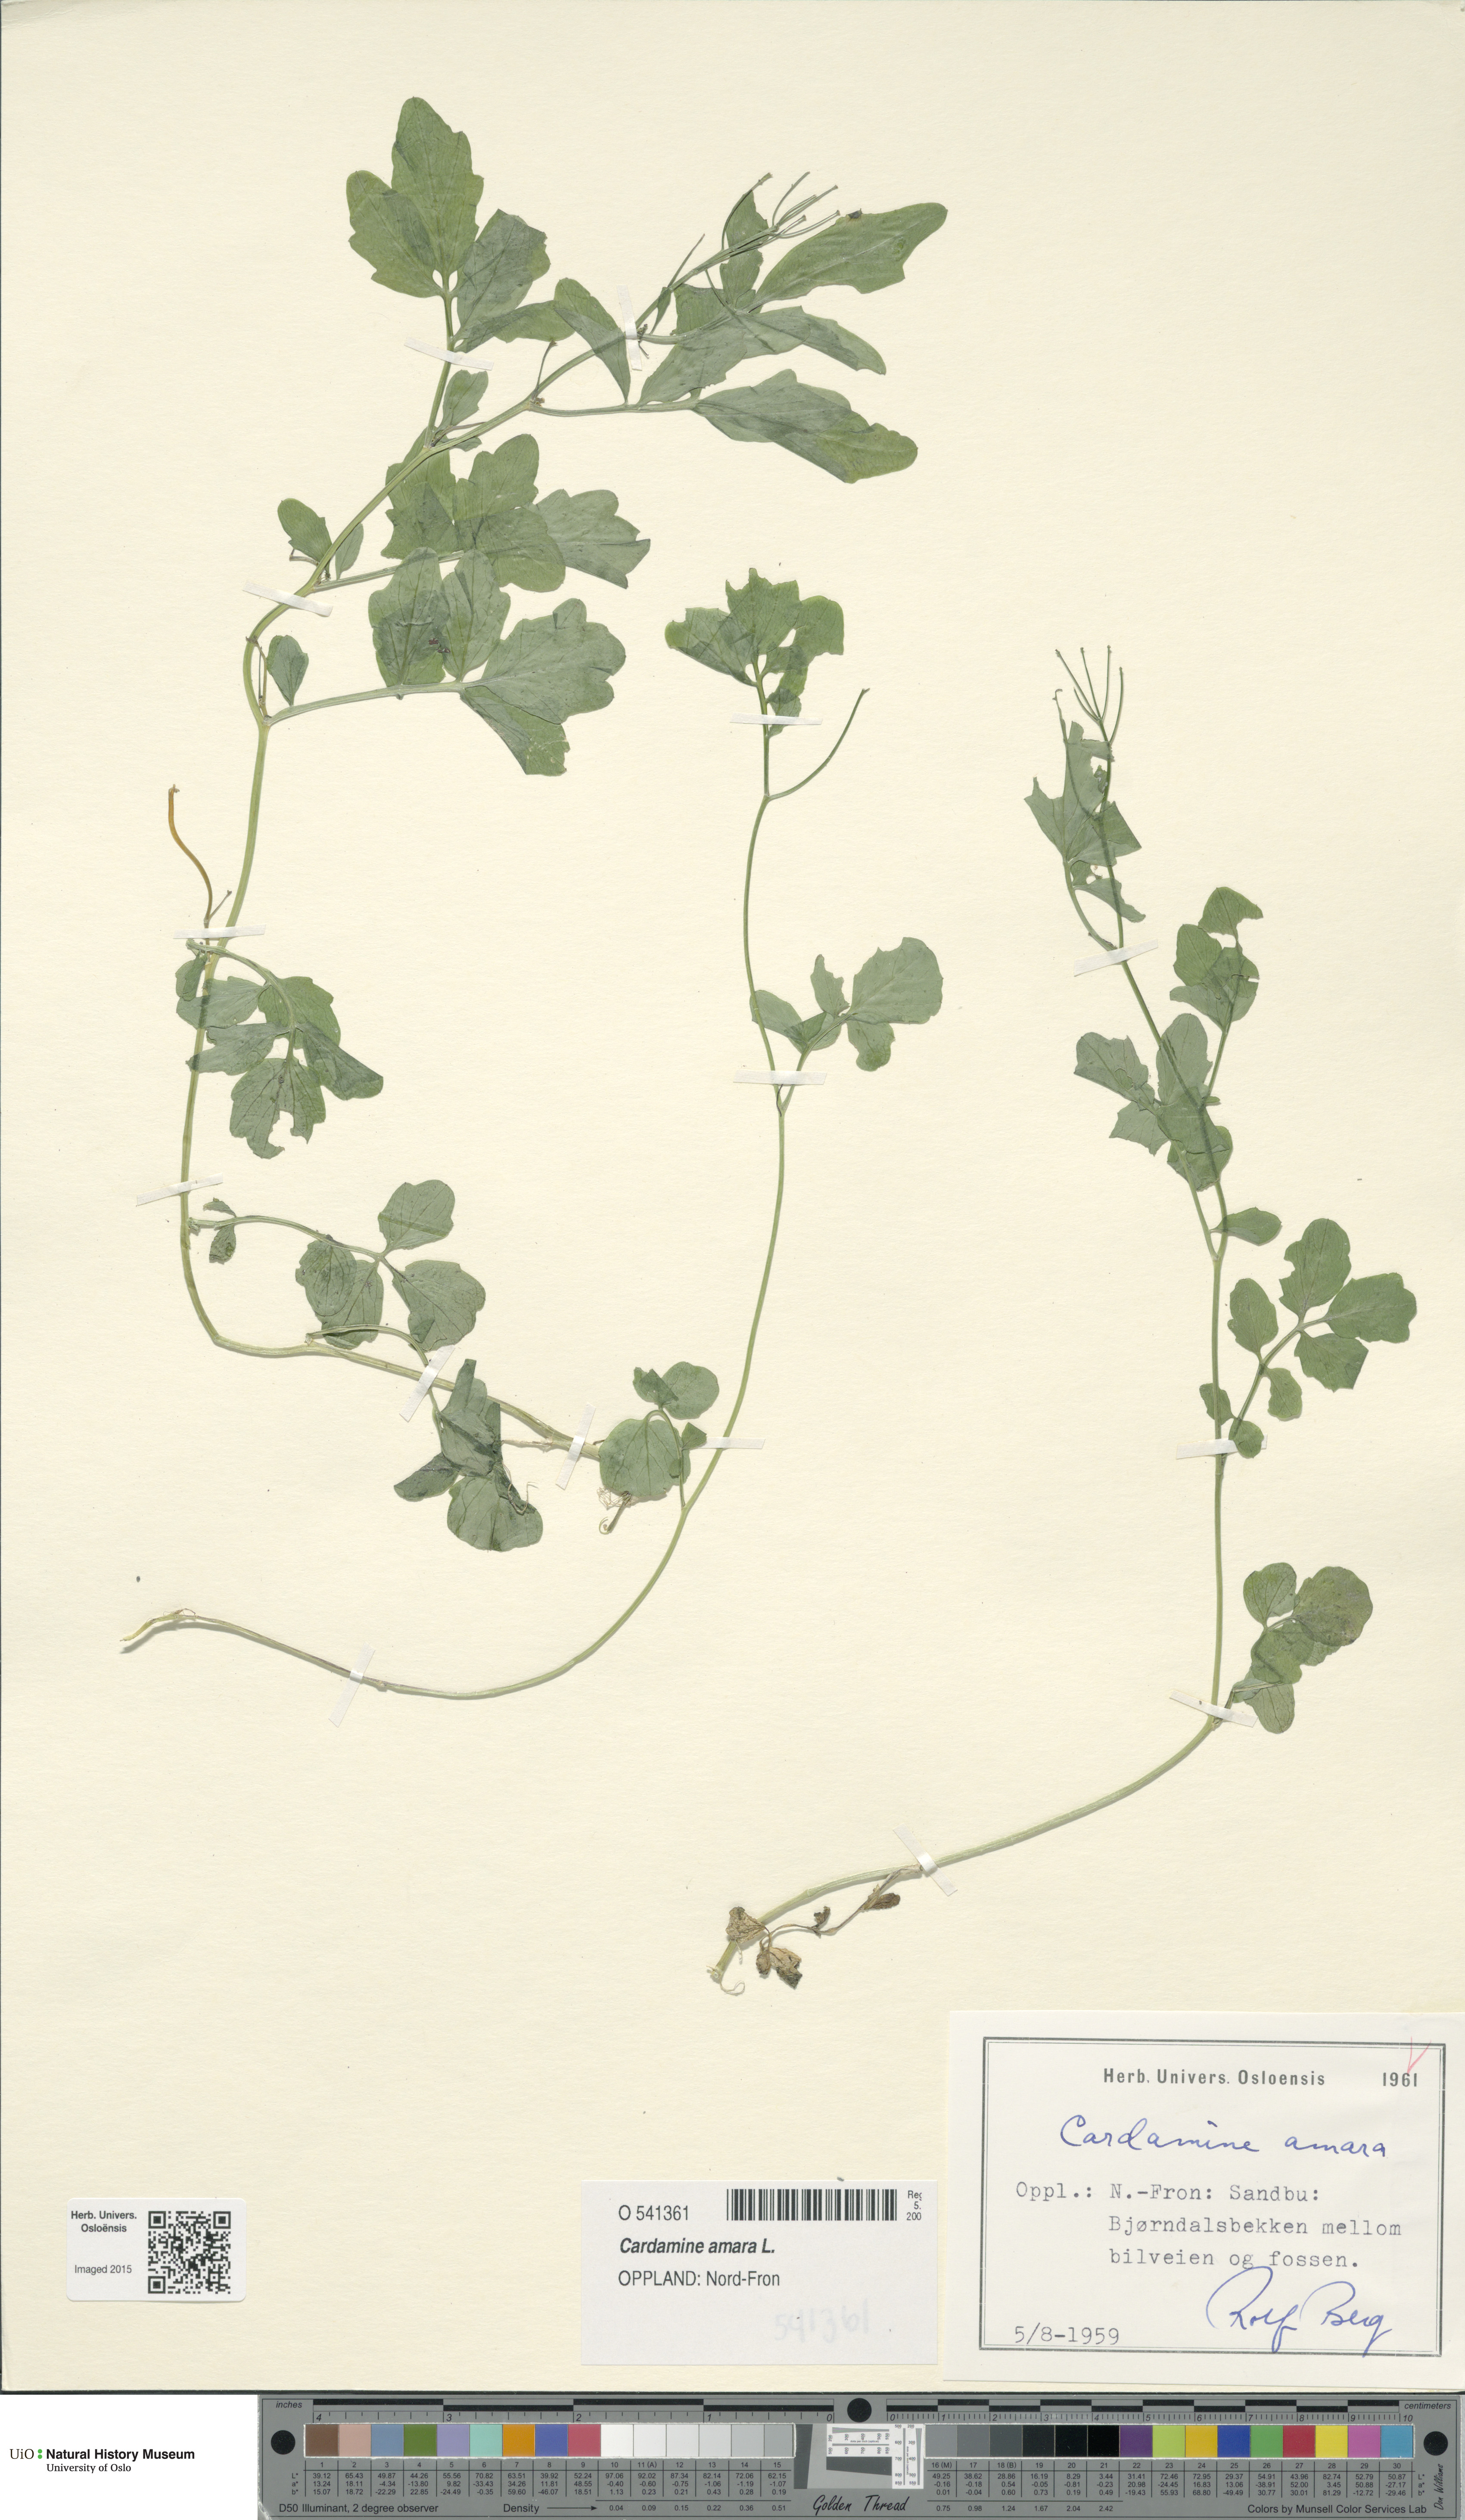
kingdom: Plantae
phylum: Tracheophyta
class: Magnoliopsida
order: Brassicales
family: Brassicaceae
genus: Cardamine
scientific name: Cardamine amara
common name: Large bitter-cress
